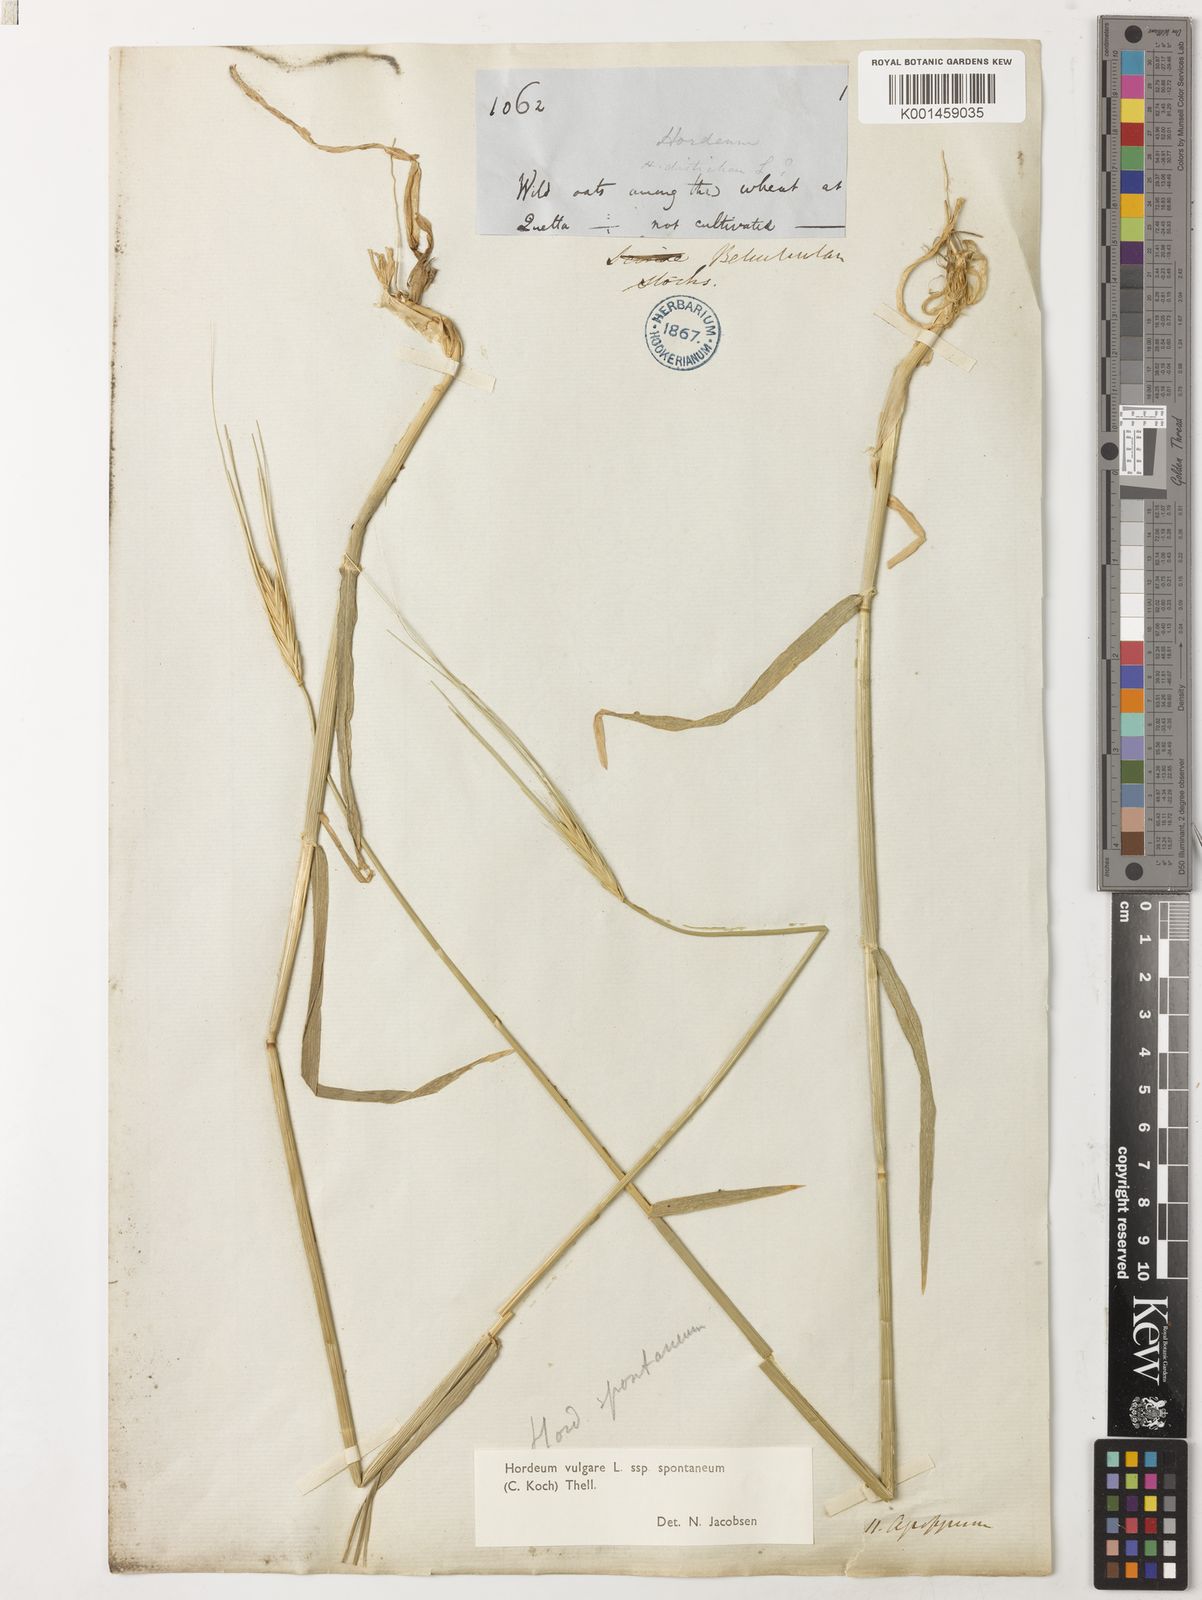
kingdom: Plantae
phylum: Tracheophyta
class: Liliopsida
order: Poales
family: Poaceae
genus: Hordeum
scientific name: Hordeum spontaneum
